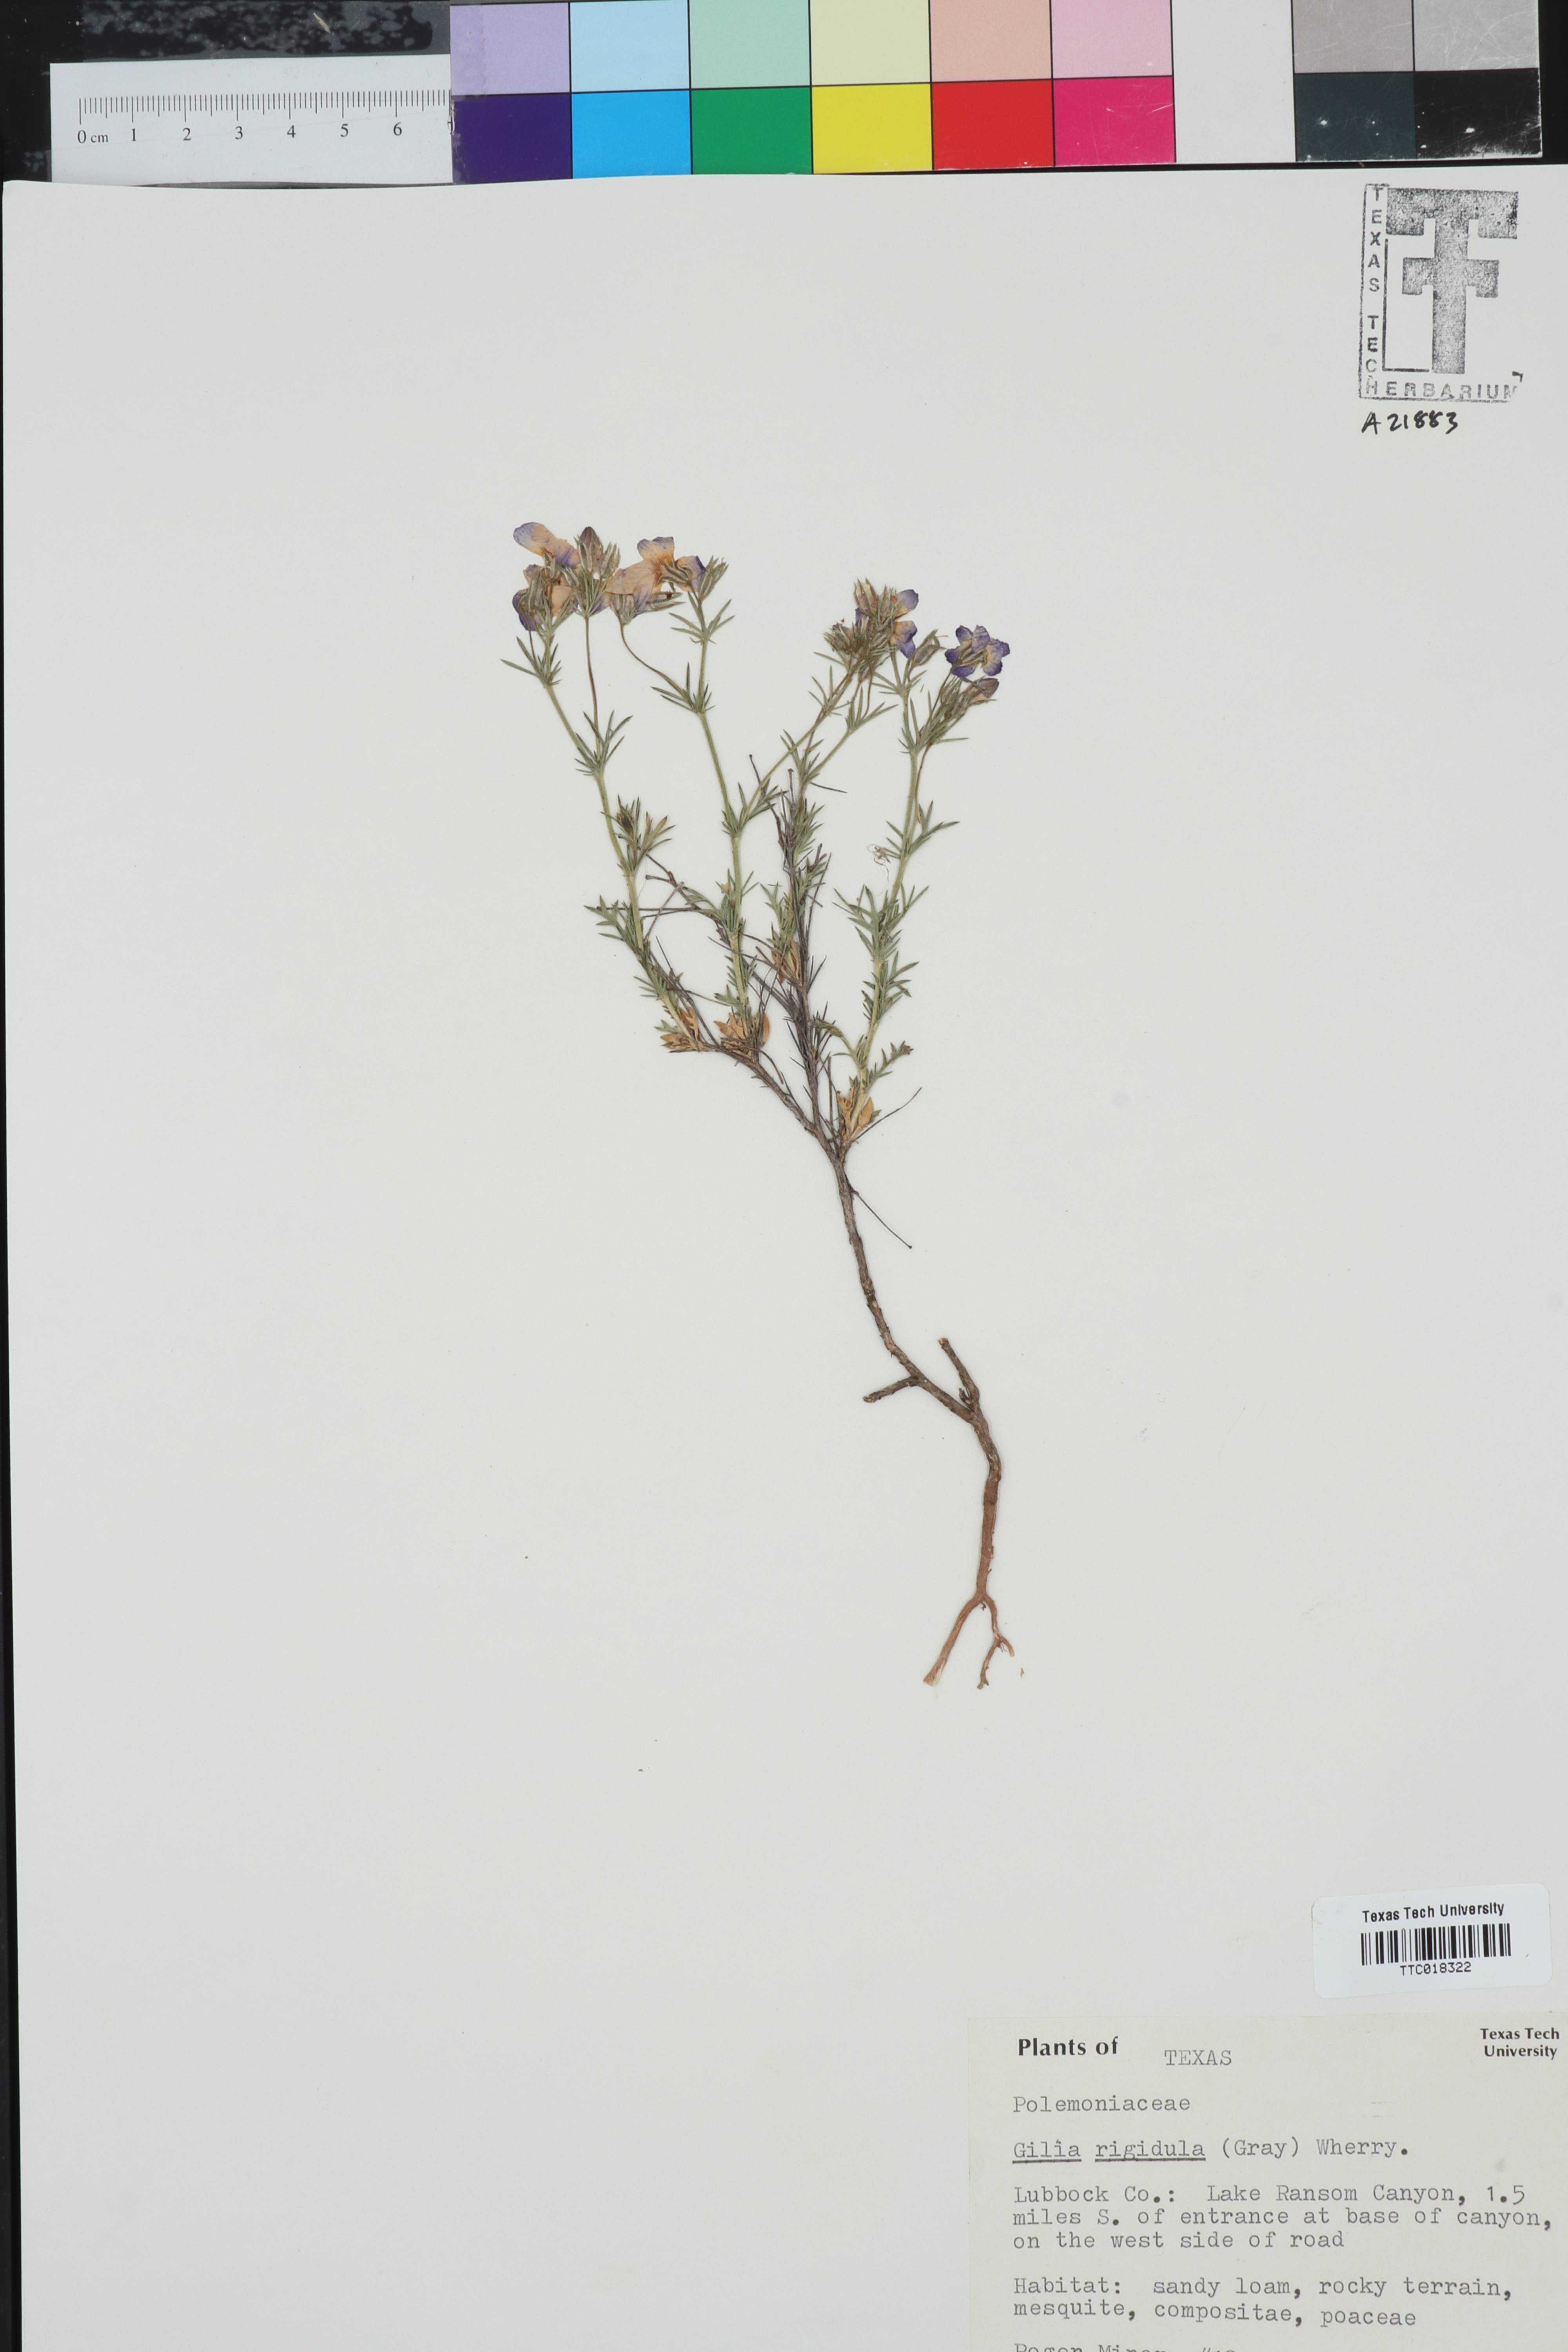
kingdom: Plantae
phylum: Tracheophyta
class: Magnoliopsida
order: Ericales
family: Polemoniaceae
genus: Giliastrum
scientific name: Giliastrum rigidulum
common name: Bluebowls
